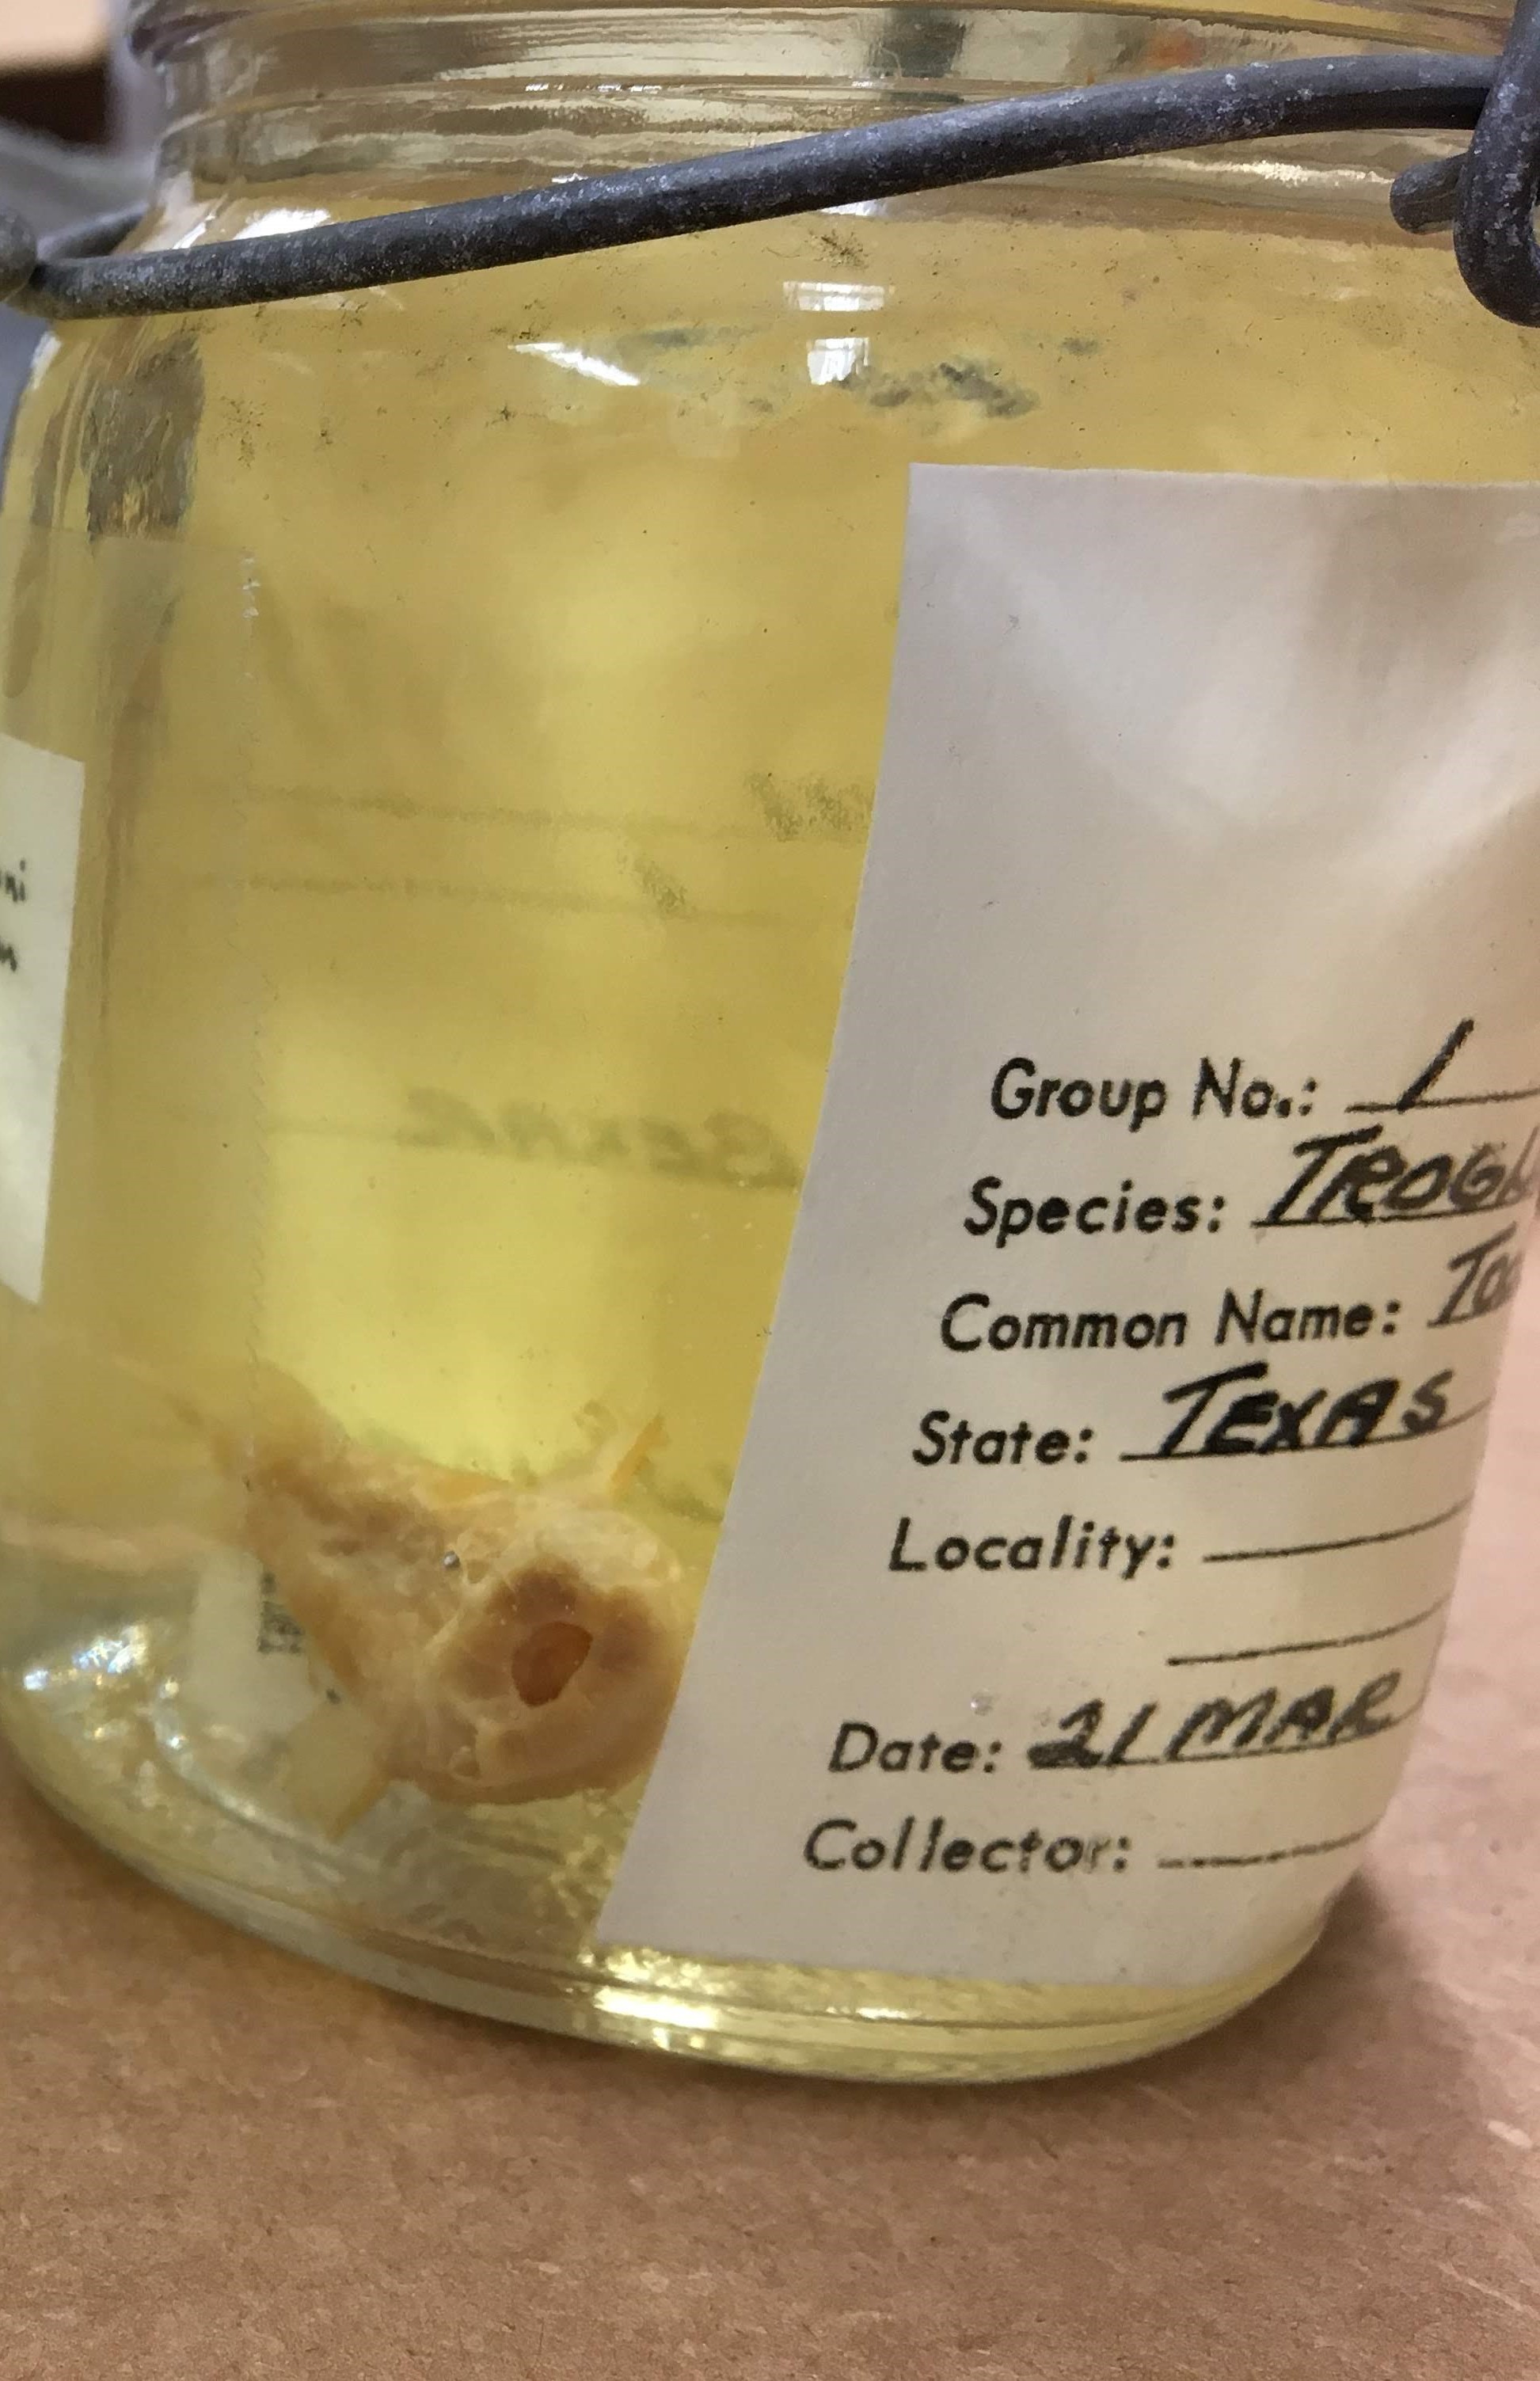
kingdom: Animalia
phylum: Chordata
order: Siluriformes
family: Ictaluridae
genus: Trogloglanis
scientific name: Trogloglanis pattersoni
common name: Toothless blindcat
